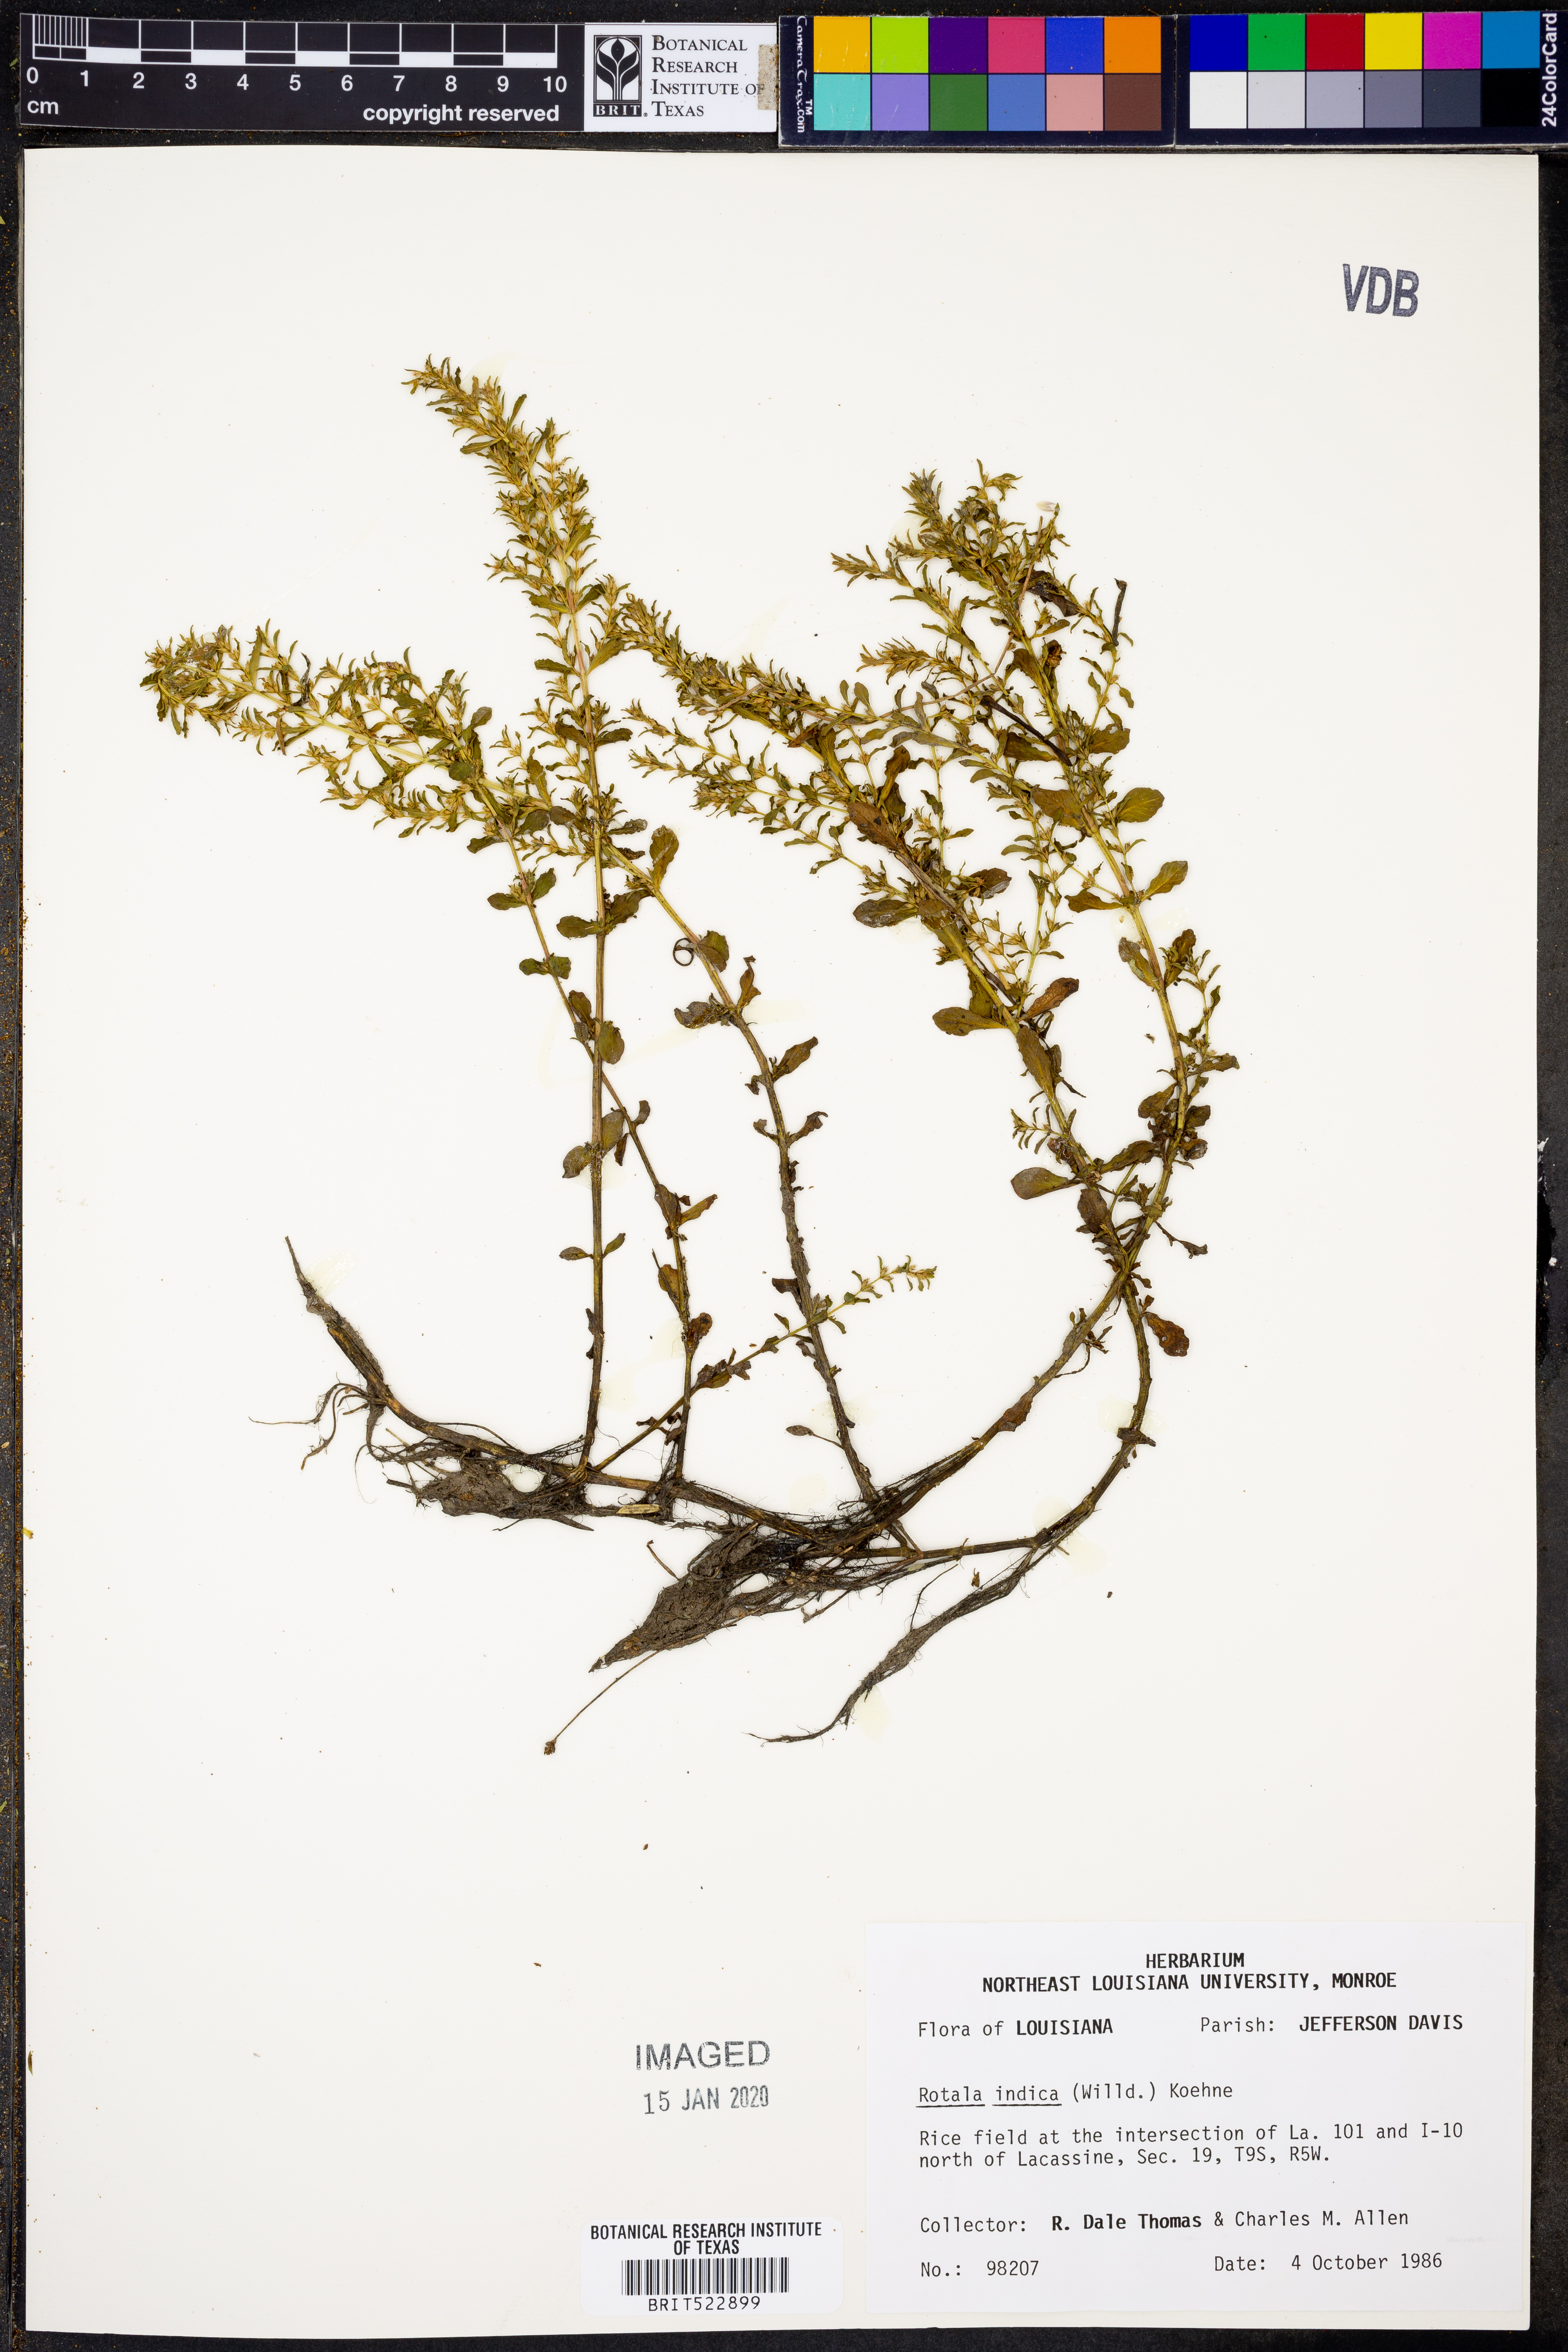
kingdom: Plantae
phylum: Tracheophyta
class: Magnoliopsida
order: Myrtales
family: Lythraceae
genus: Rotala
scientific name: Rotala indica
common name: Indian toothcup
